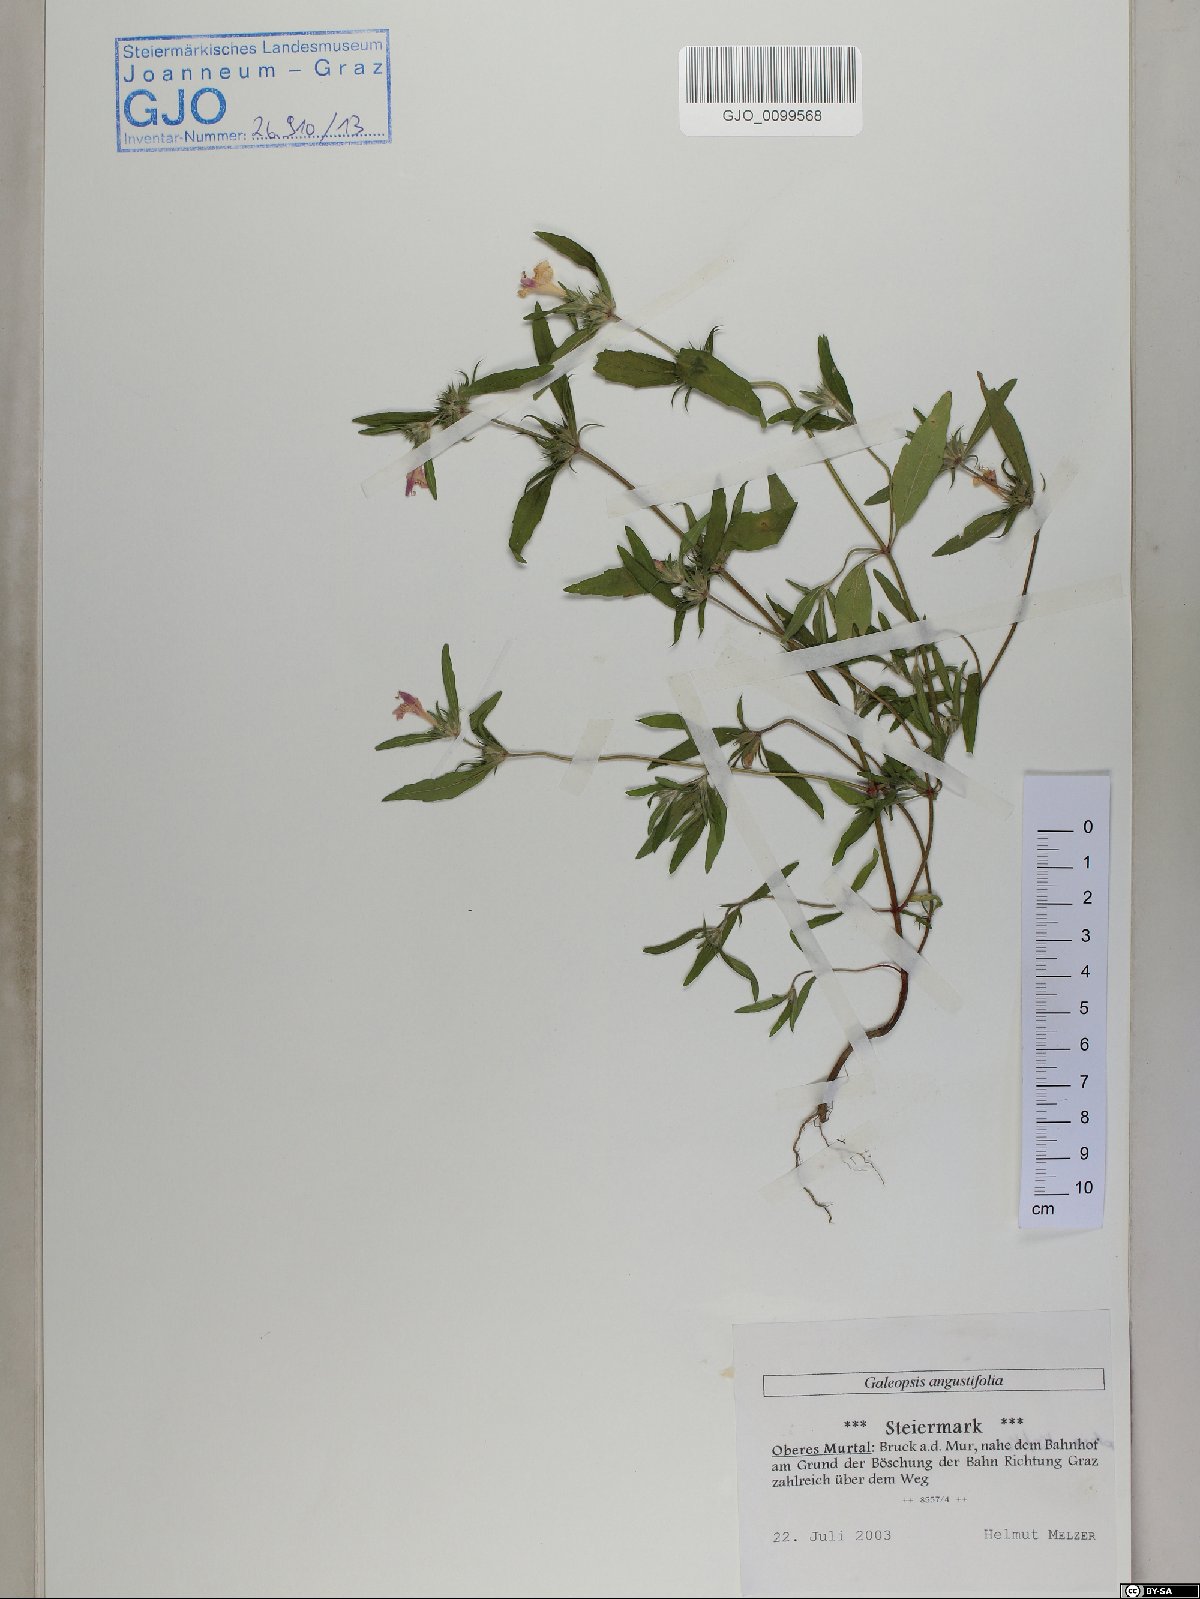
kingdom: Plantae
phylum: Tracheophyta
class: Magnoliopsida
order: Lamiales
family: Lamiaceae
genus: Galeopsis
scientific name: Galeopsis angustifolia
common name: Red hemp-nettle
